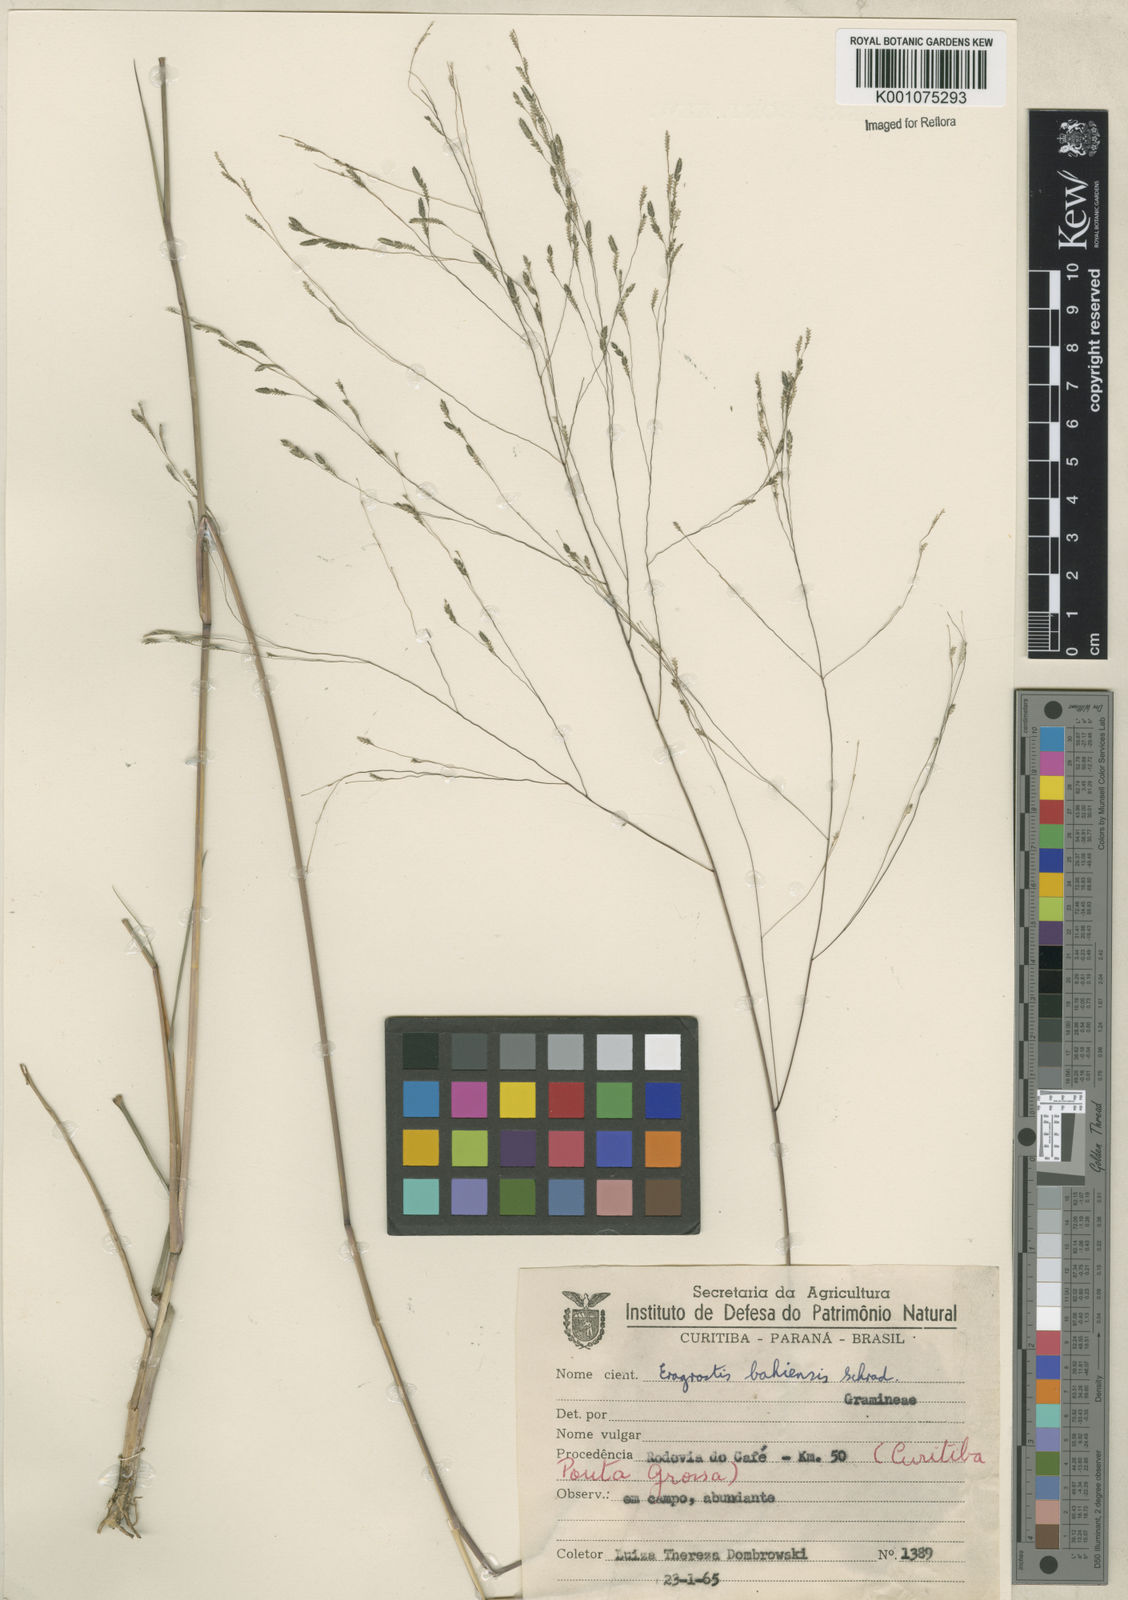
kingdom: Plantae
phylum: Tracheophyta
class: Liliopsida
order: Poales
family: Poaceae
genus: Eragrostis
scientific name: Eragrostis bahiensis
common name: Bahia lovegrass
